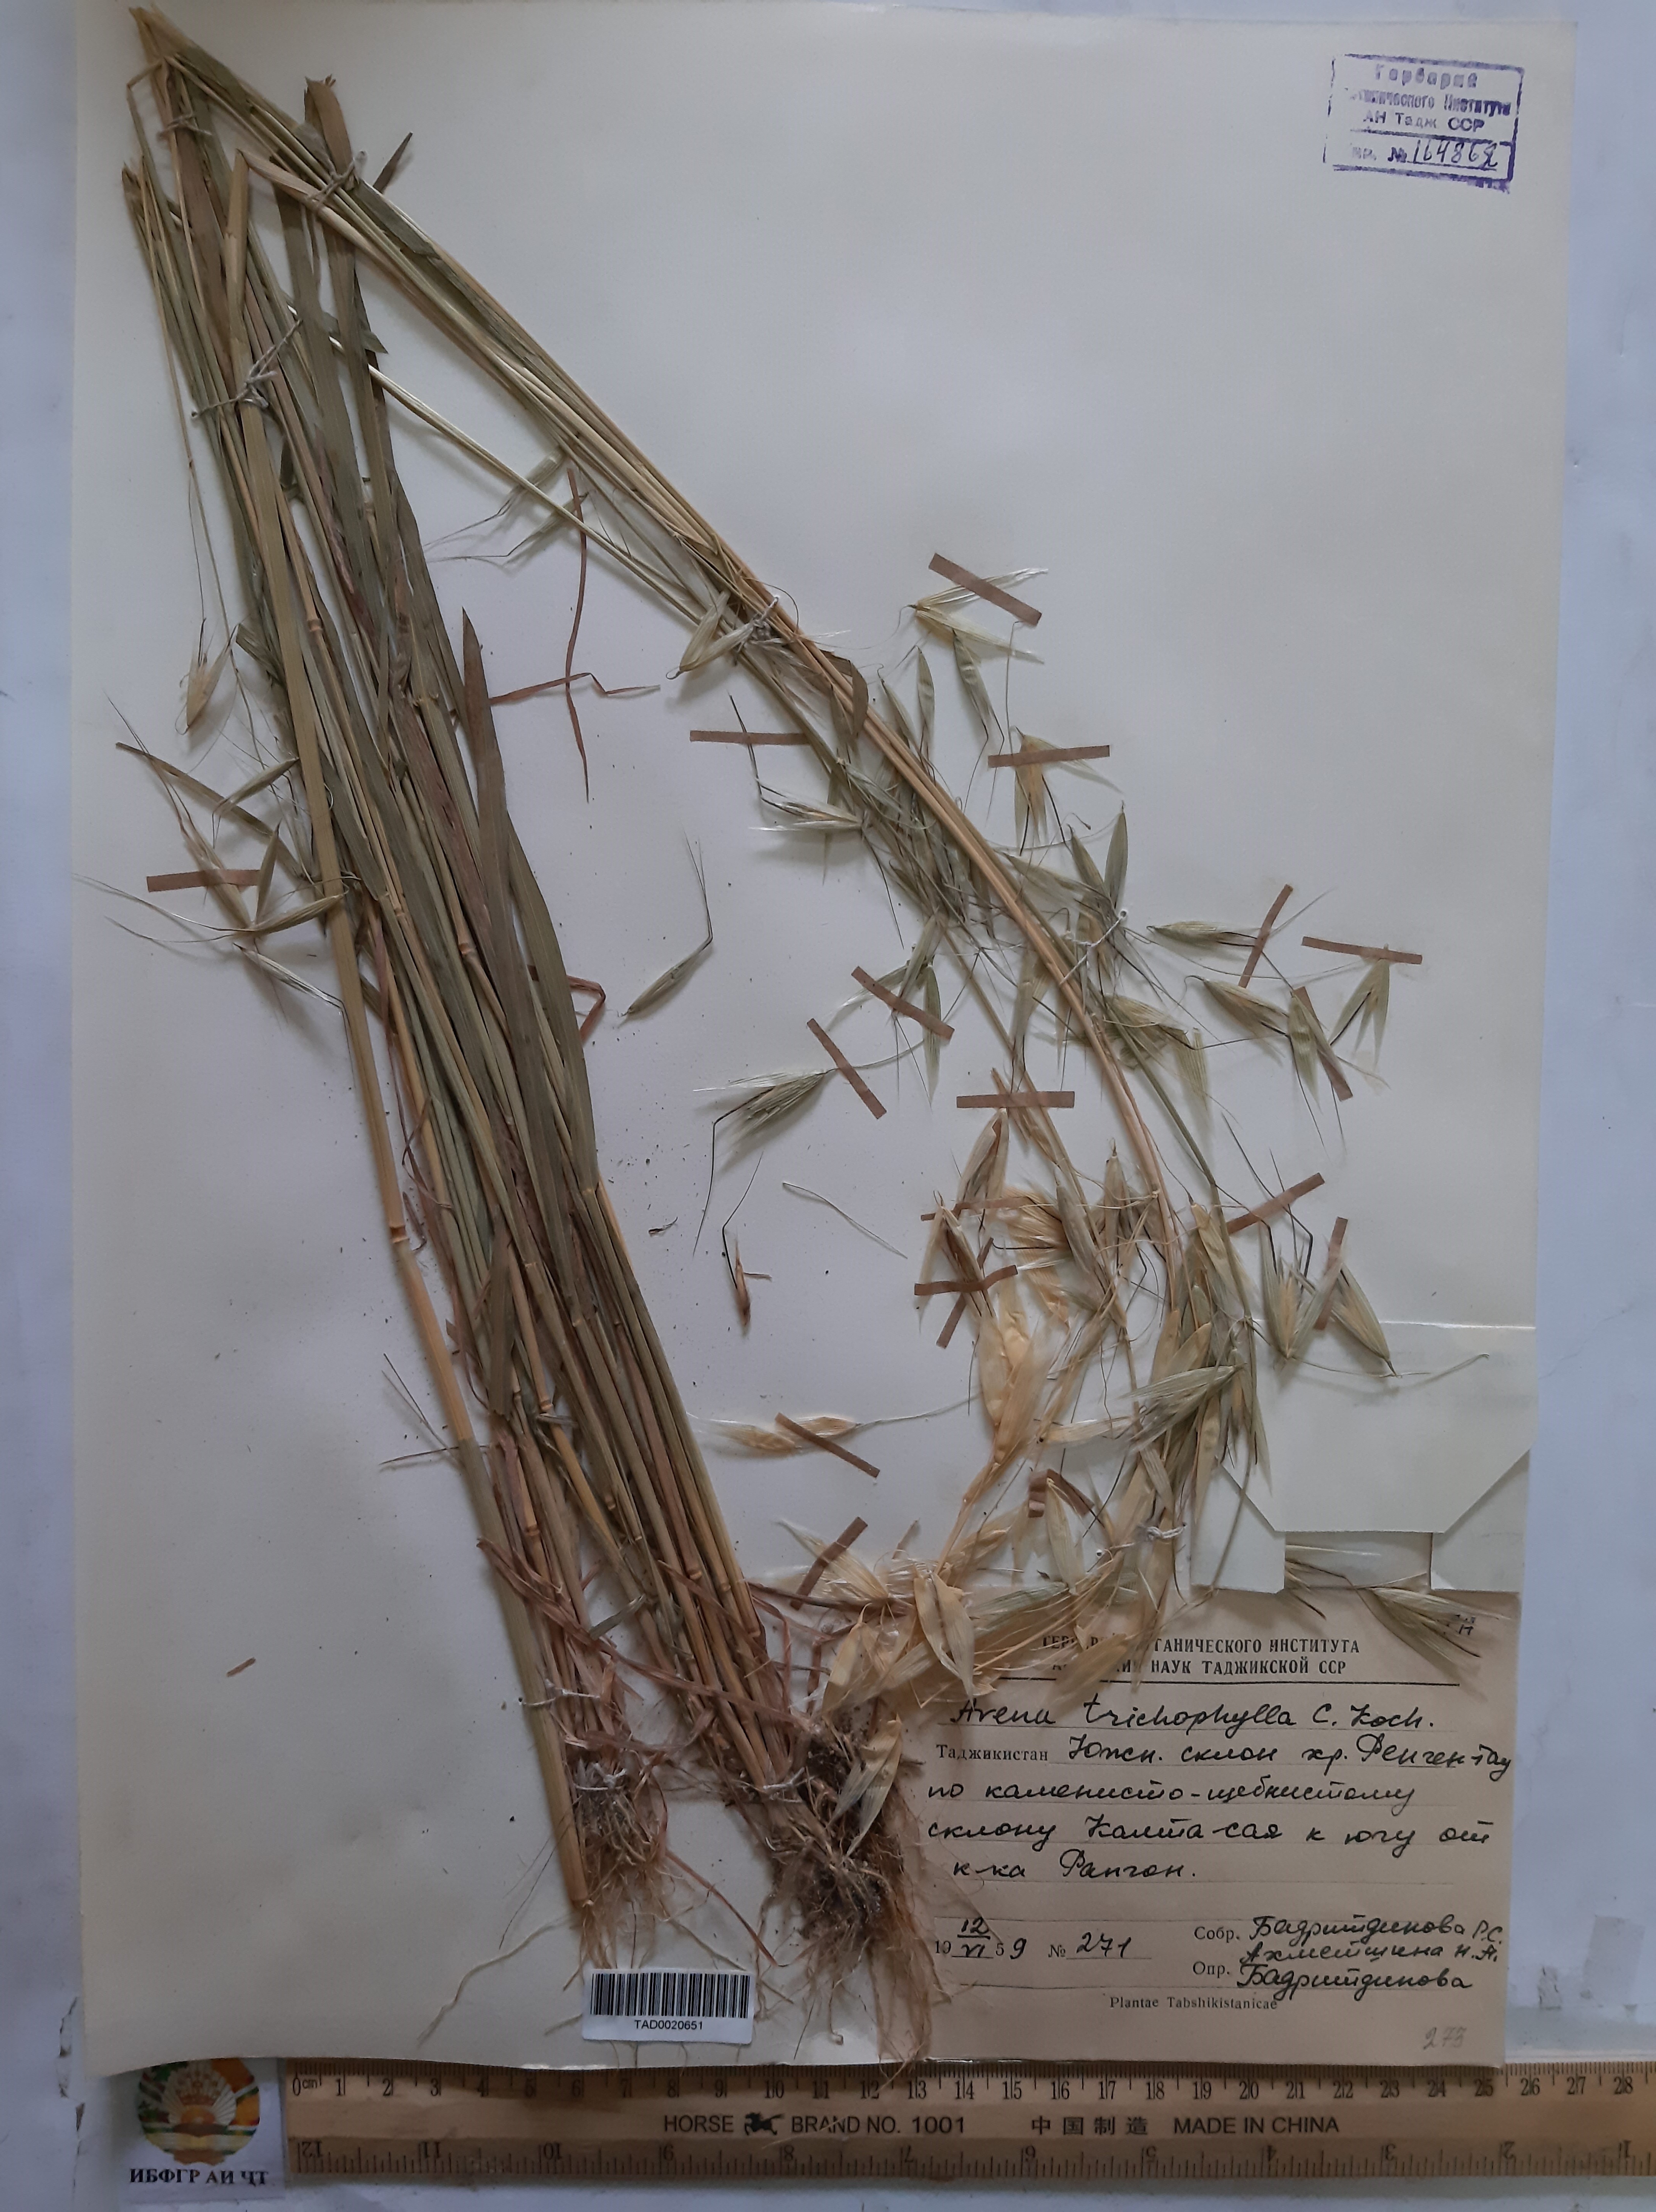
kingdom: Plantae
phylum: Tracheophyta
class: Liliopsida
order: Poales
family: Poaceae
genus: Avena
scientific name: Avena sterilis
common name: Animated oat
